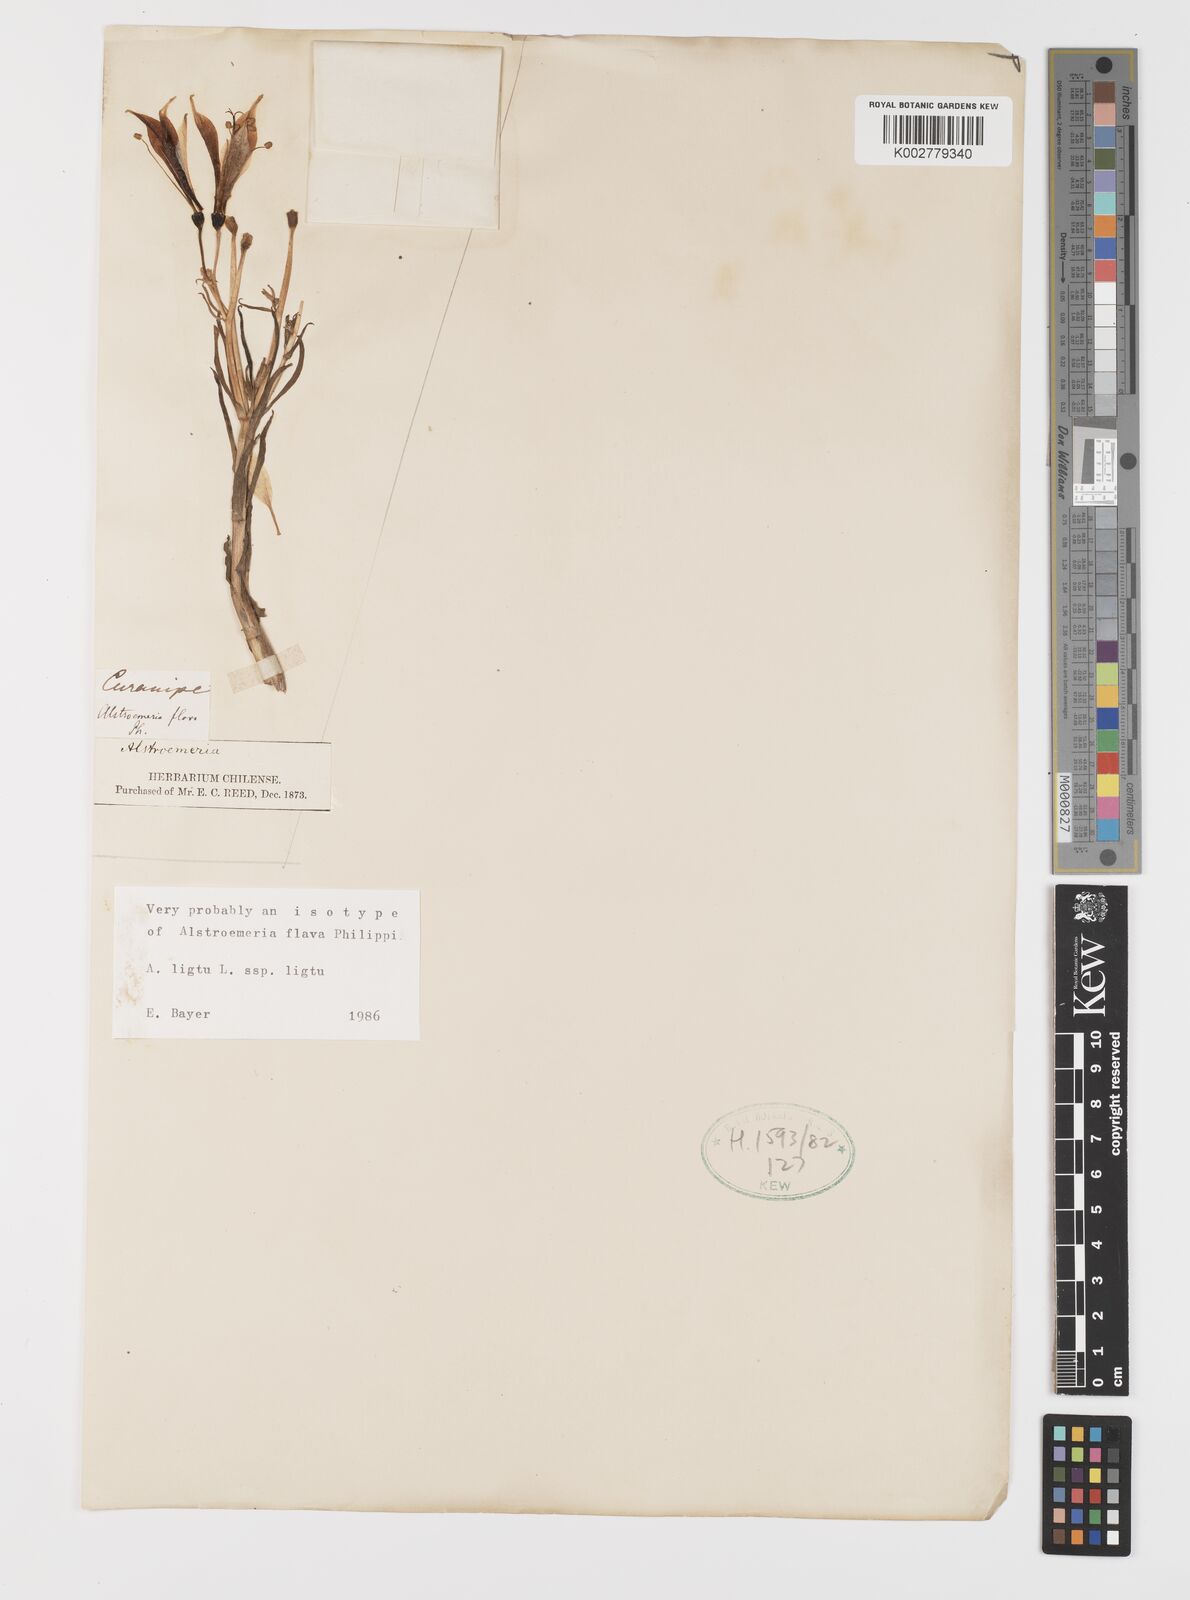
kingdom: Plantae
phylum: Tracheophyta
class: Liliopsida
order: Liliales
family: Alstroemeriaceae
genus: Alstroemeria
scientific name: Alstroemeria ligtu
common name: St. martin's-flower
